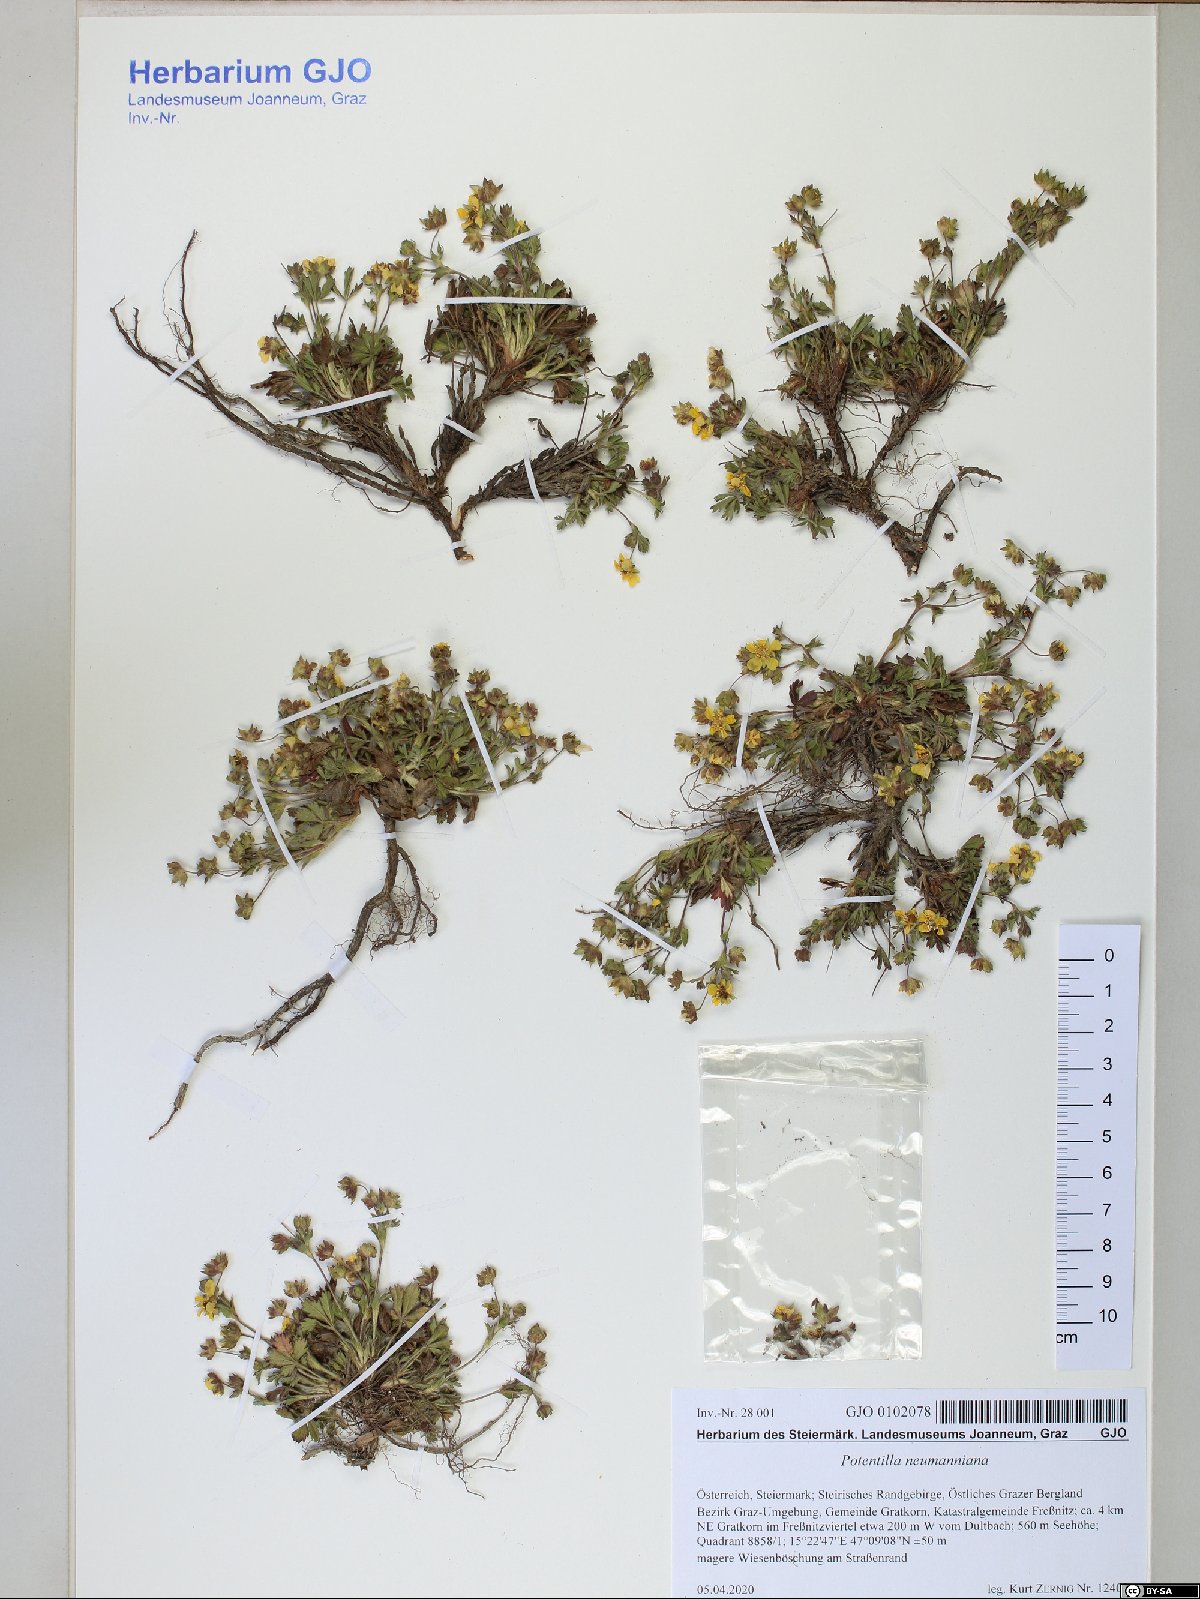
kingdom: Plantae
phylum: Tracheophyta
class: Magnoliopsida
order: Rosales
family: Rosaceae
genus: Potentilla
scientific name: Potentilla verna
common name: Spring cinquefoil
